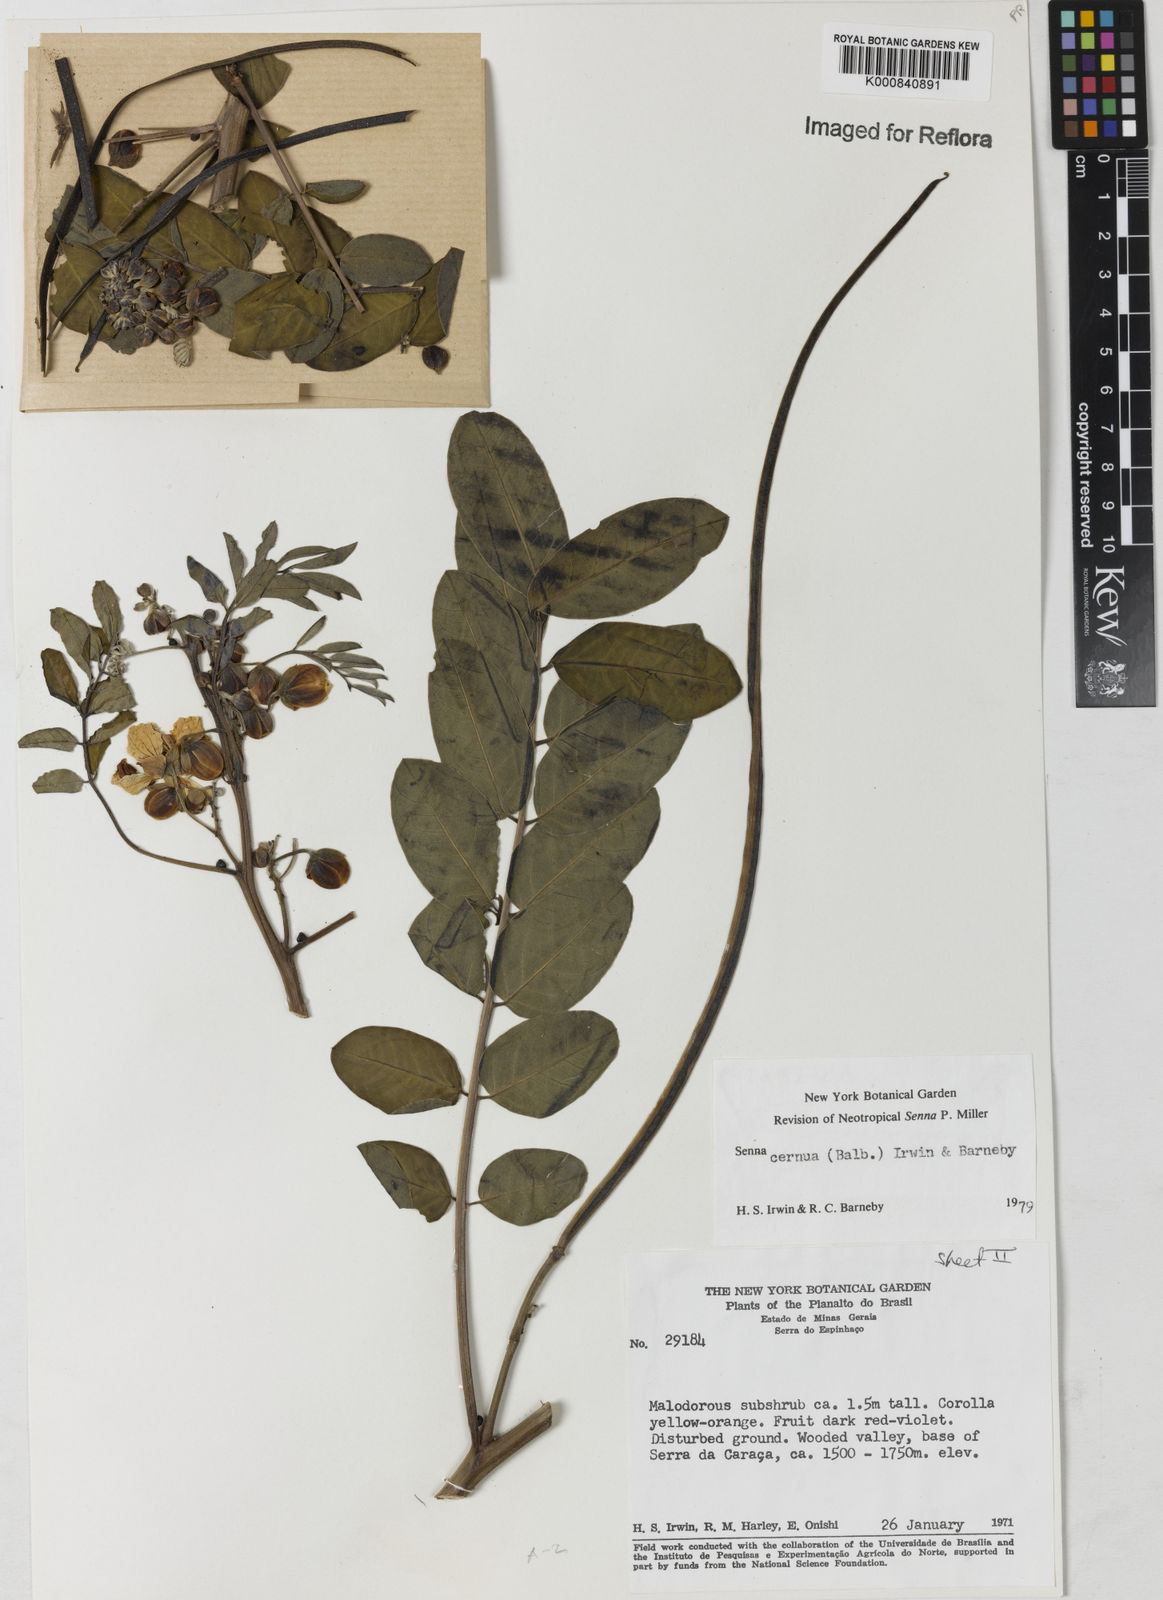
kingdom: Plantae
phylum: Tracheophyta
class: Magnoliopsida
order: Fabales
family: Fabaceae
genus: Senna
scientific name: Senna cernua
